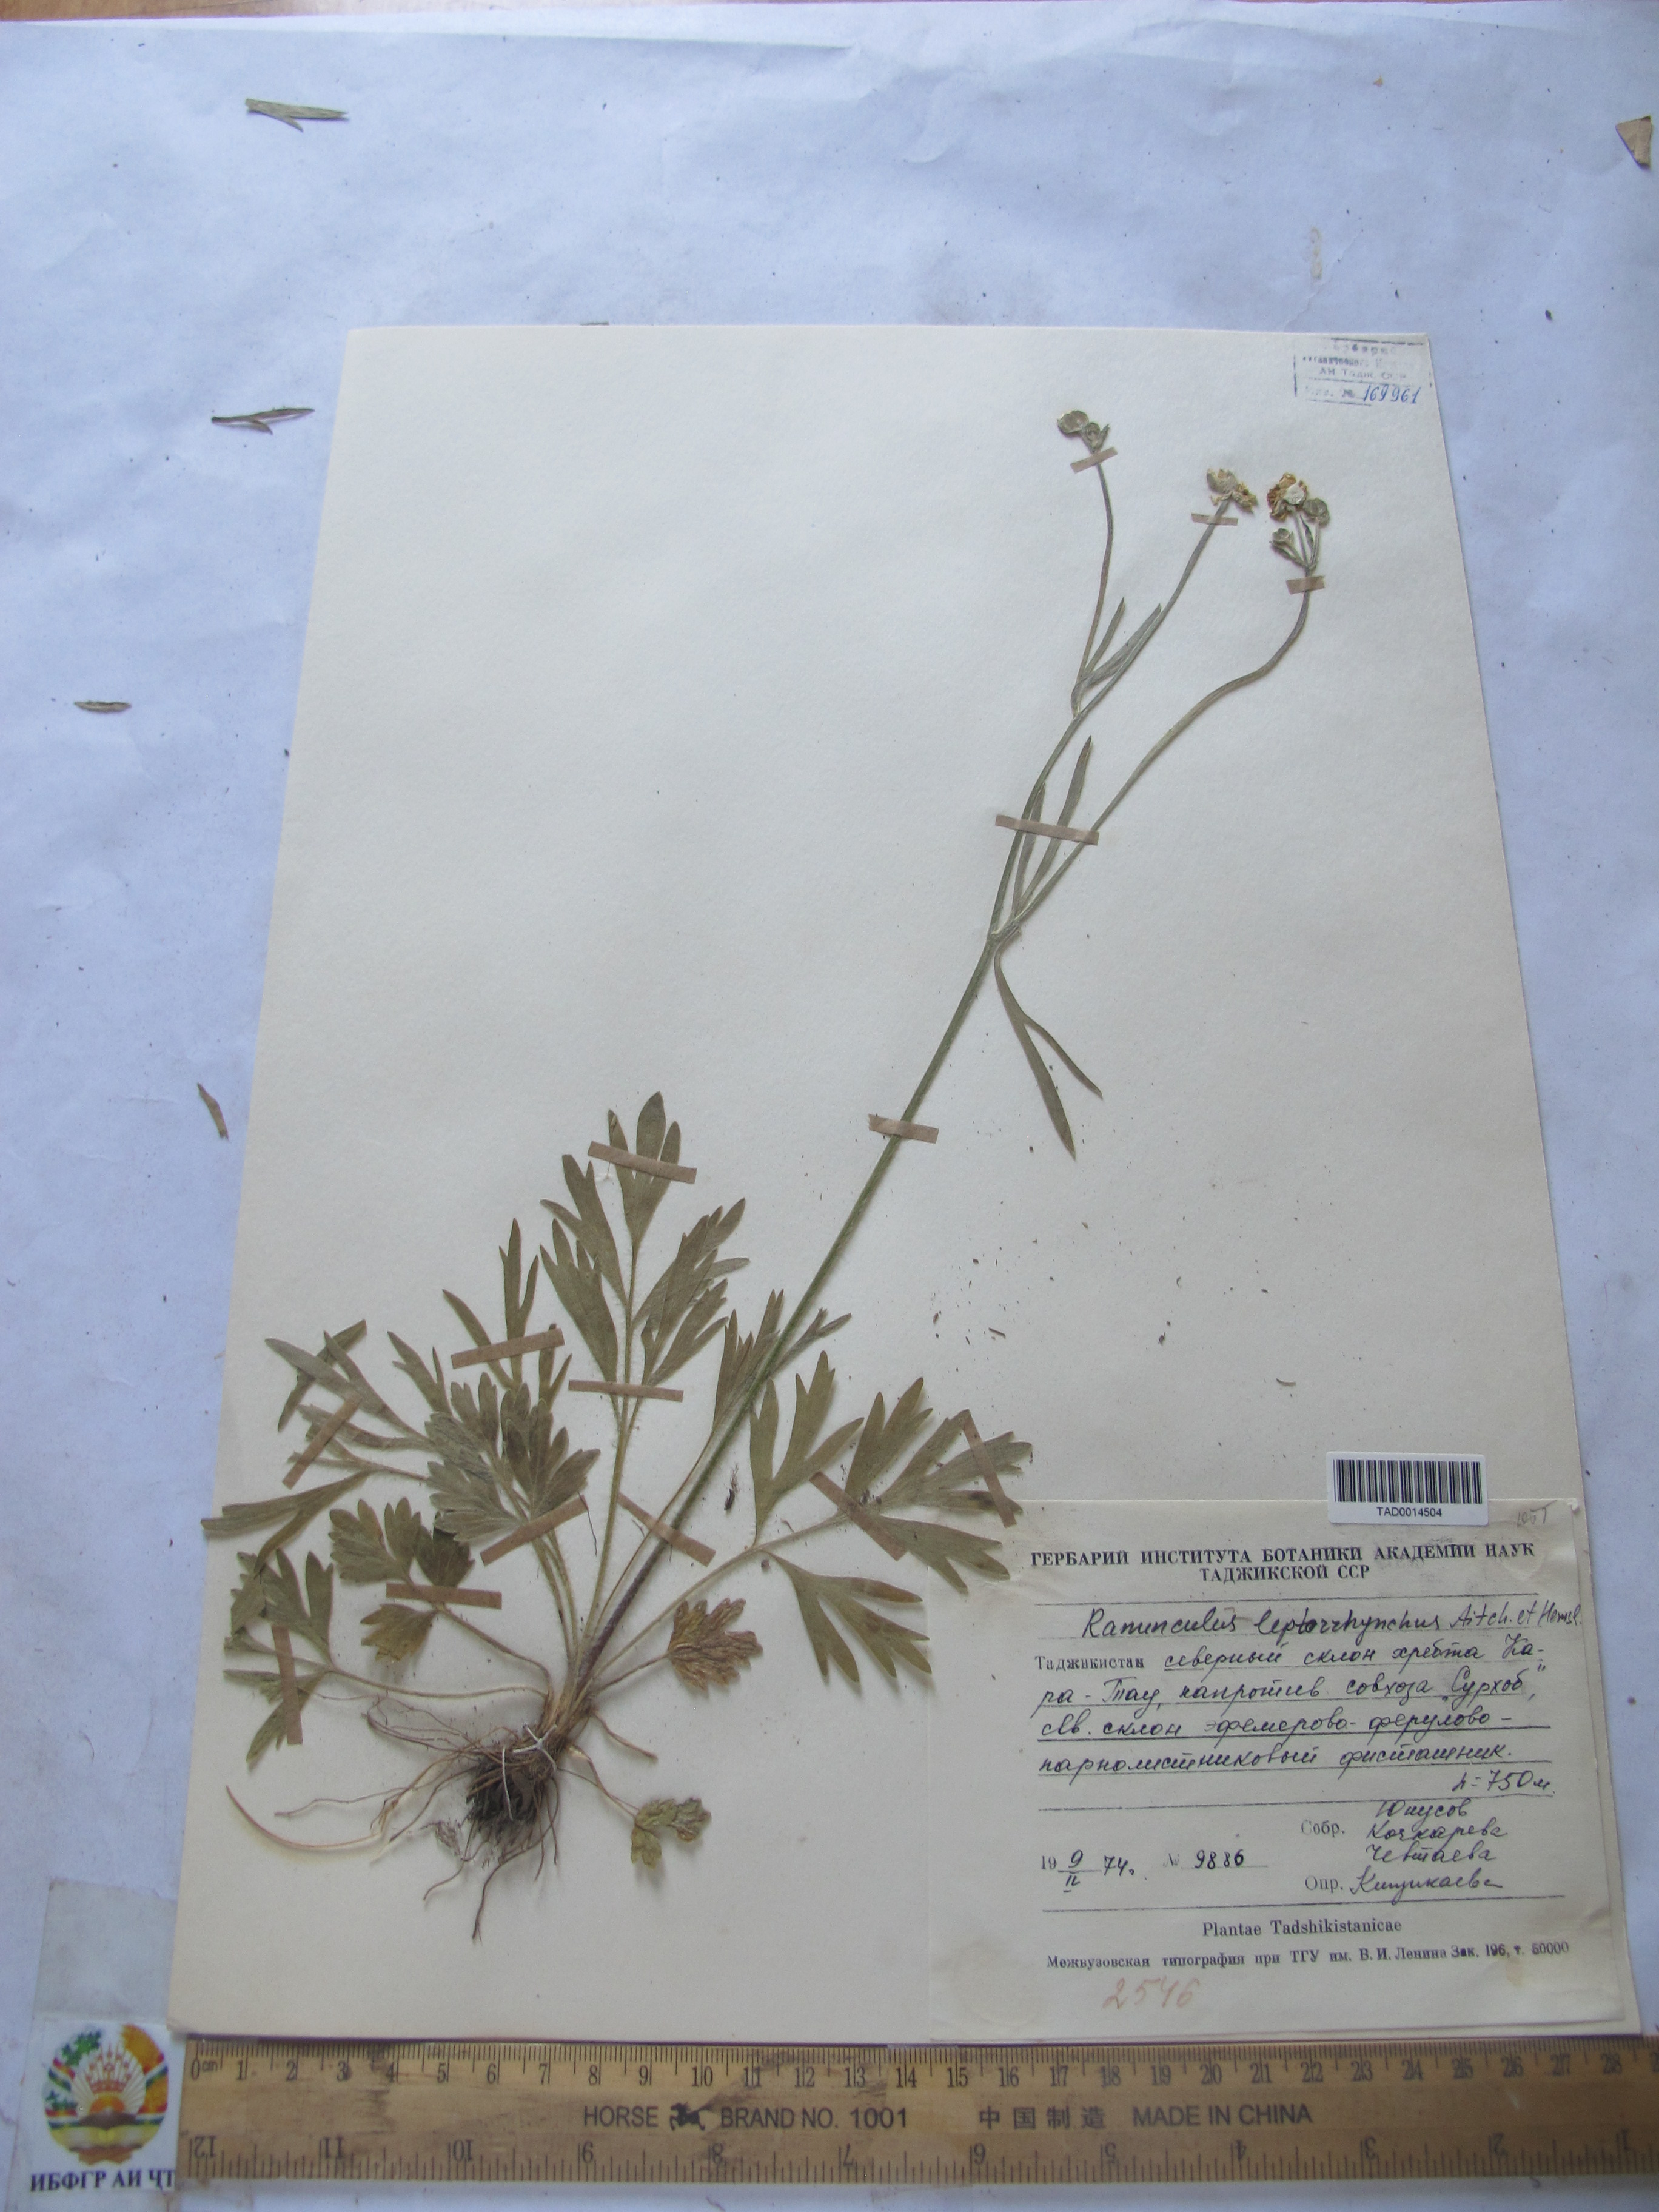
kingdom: Plantae
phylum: Tracheophyta
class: Magnoliopsida
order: Ranunculales
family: Ranunculaceae
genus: Ranunculus
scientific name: Ranunculus leptorrhynchus
